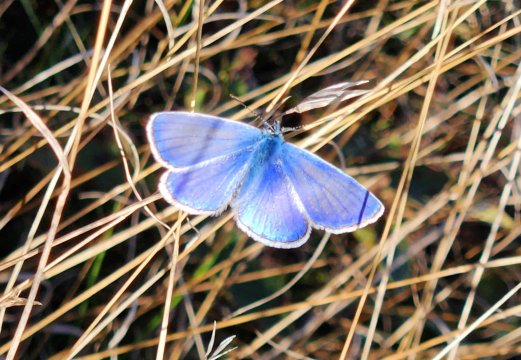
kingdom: Animalia
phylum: Arthropoda
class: Insecta
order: Lepidoptera
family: Lycaenidae
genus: Polyommatus
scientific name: Polyommatus icarus
